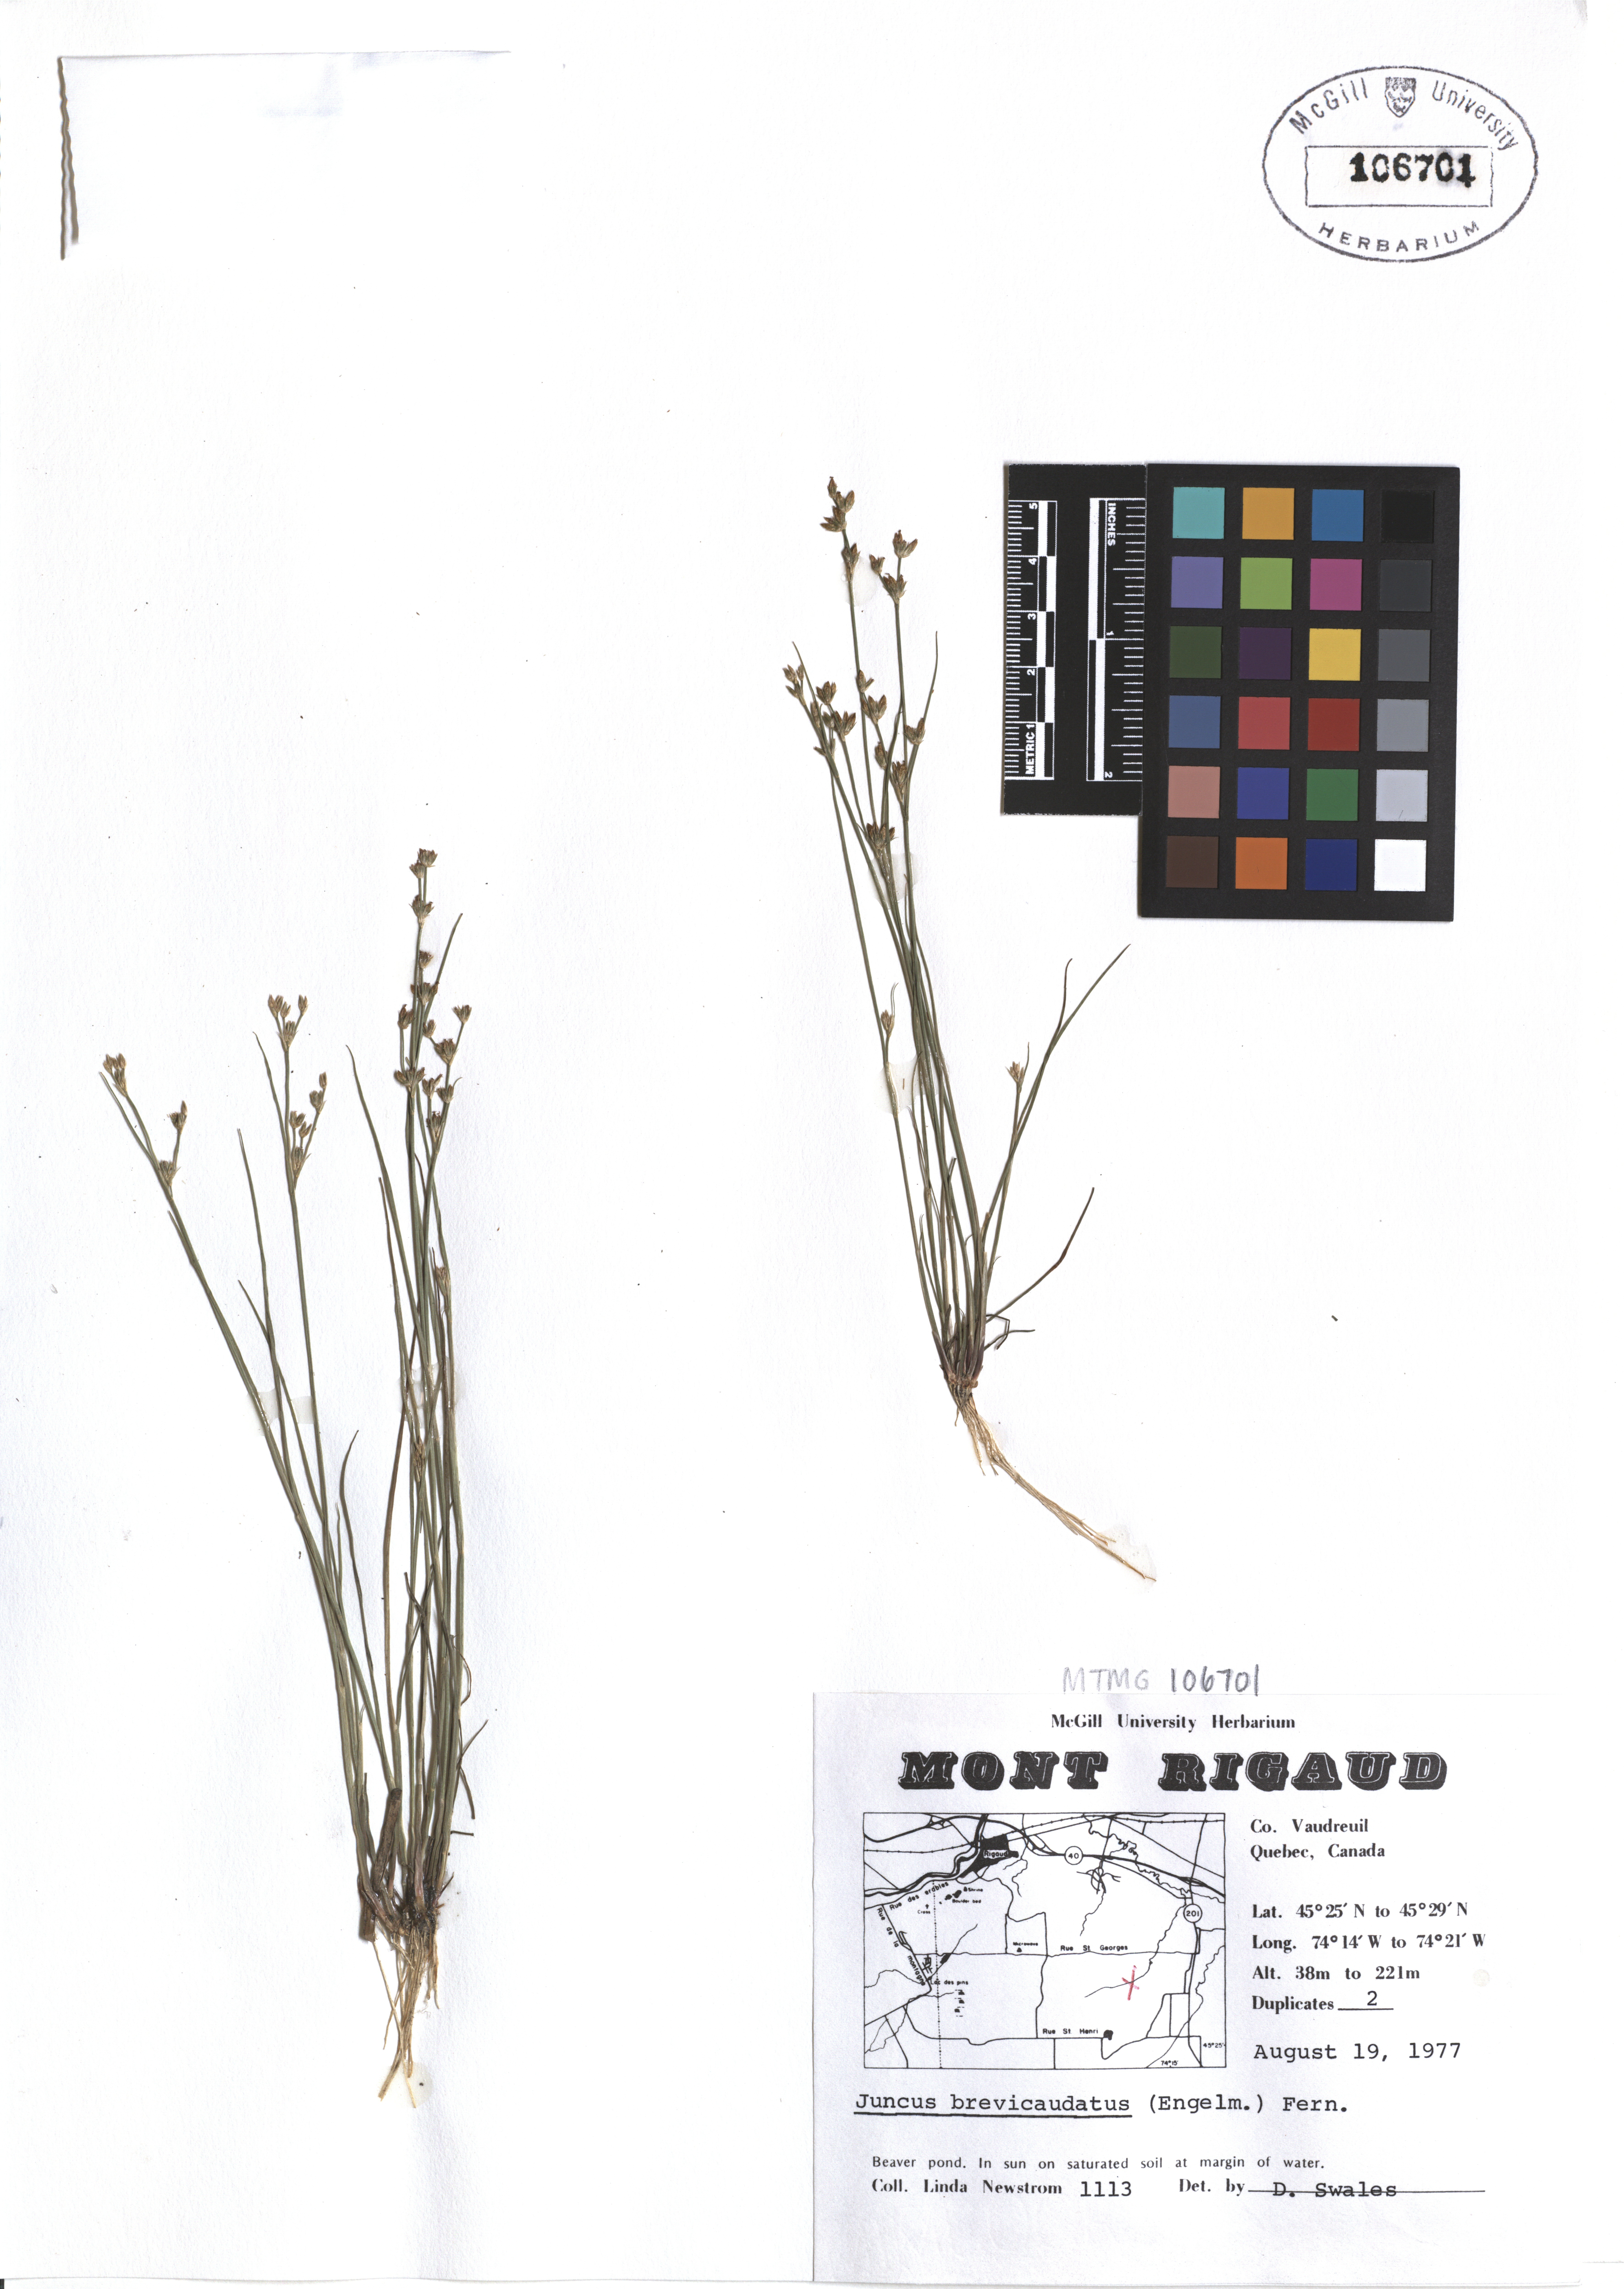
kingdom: Plantae
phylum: Tracheophyta
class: Liliopsida
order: Poales
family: Juncaceae
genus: Juncus
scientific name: Juncus brevicaudatus
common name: Narrow-panicle rush
